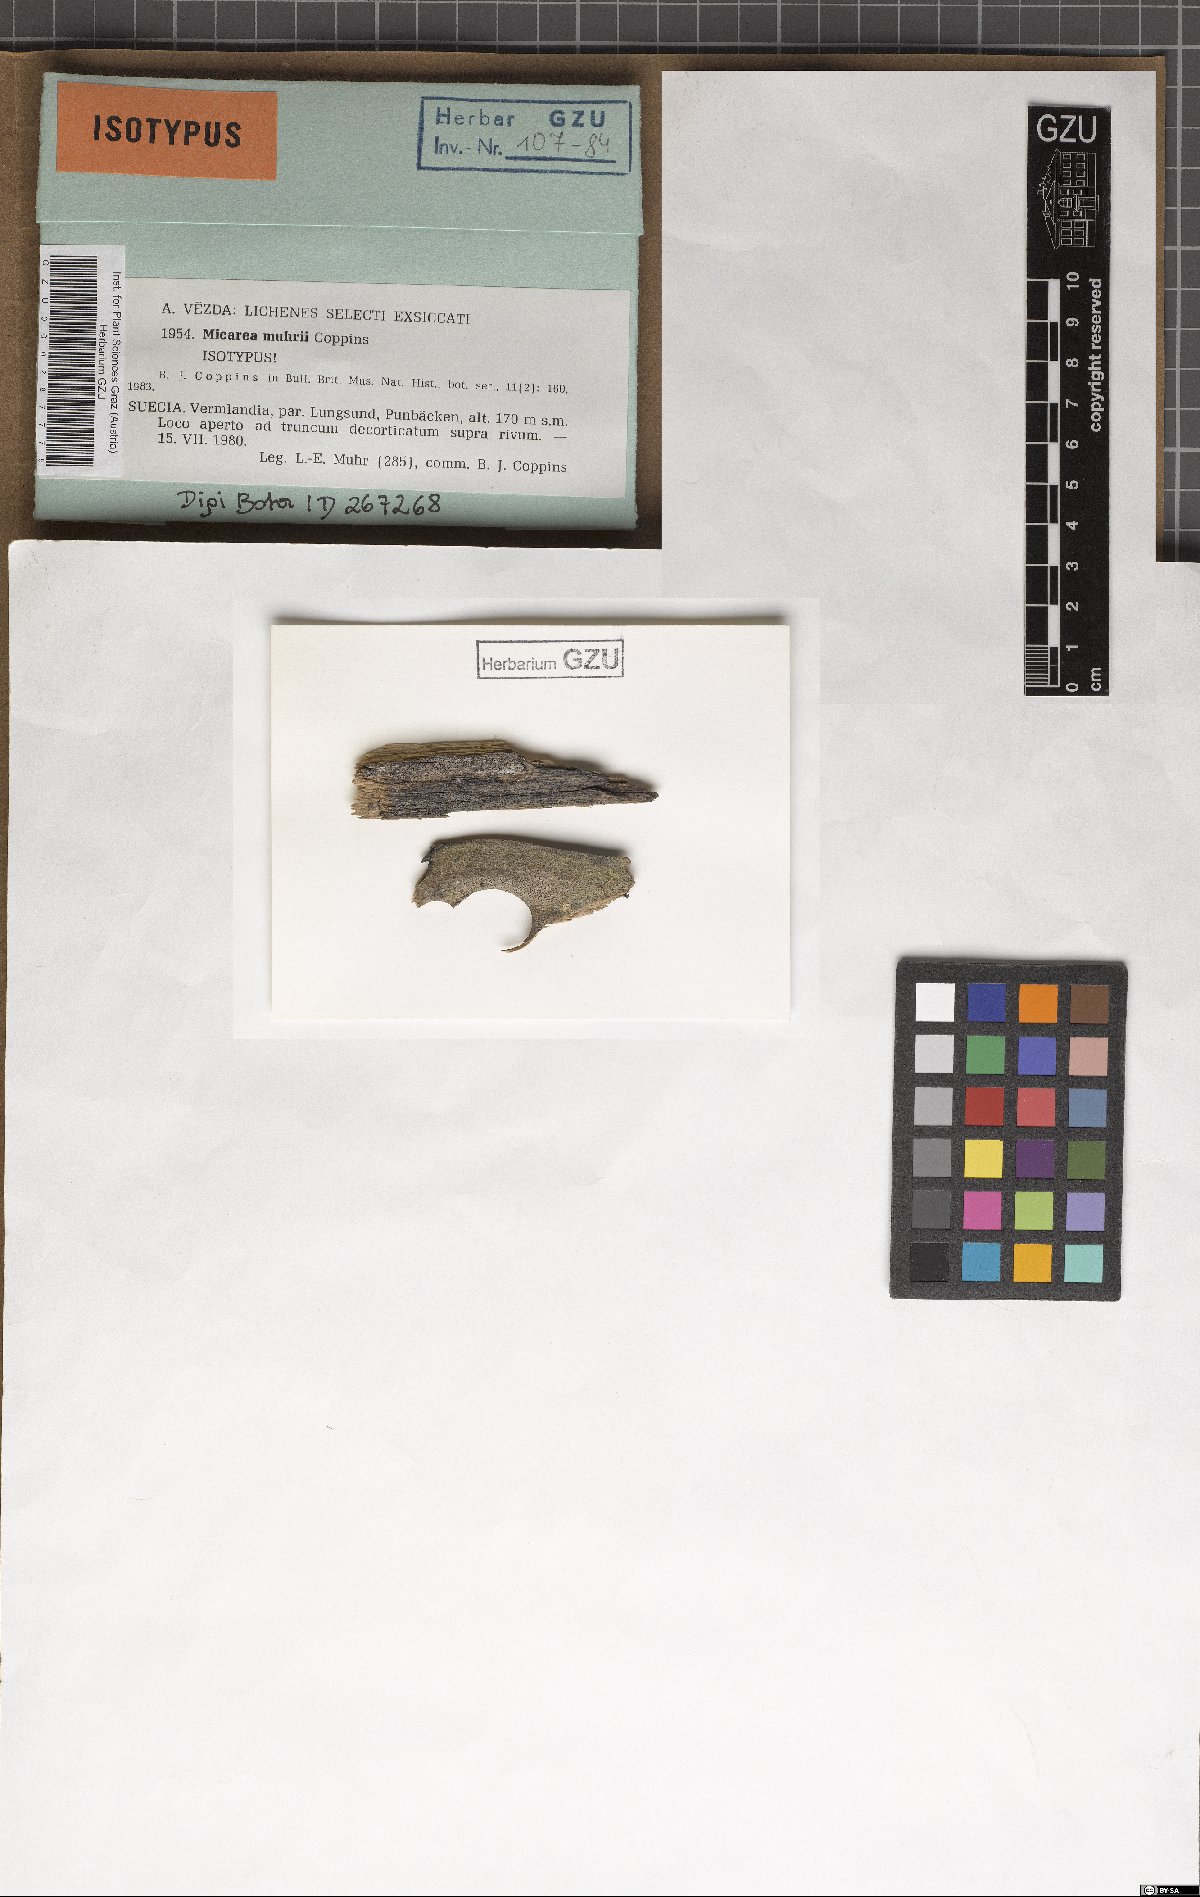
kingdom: Fungi
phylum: Ascomycota
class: Lecanoromycetes
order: Lecanorales
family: Byssolomataceae
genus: Micarea
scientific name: Micarea vulpinaris
